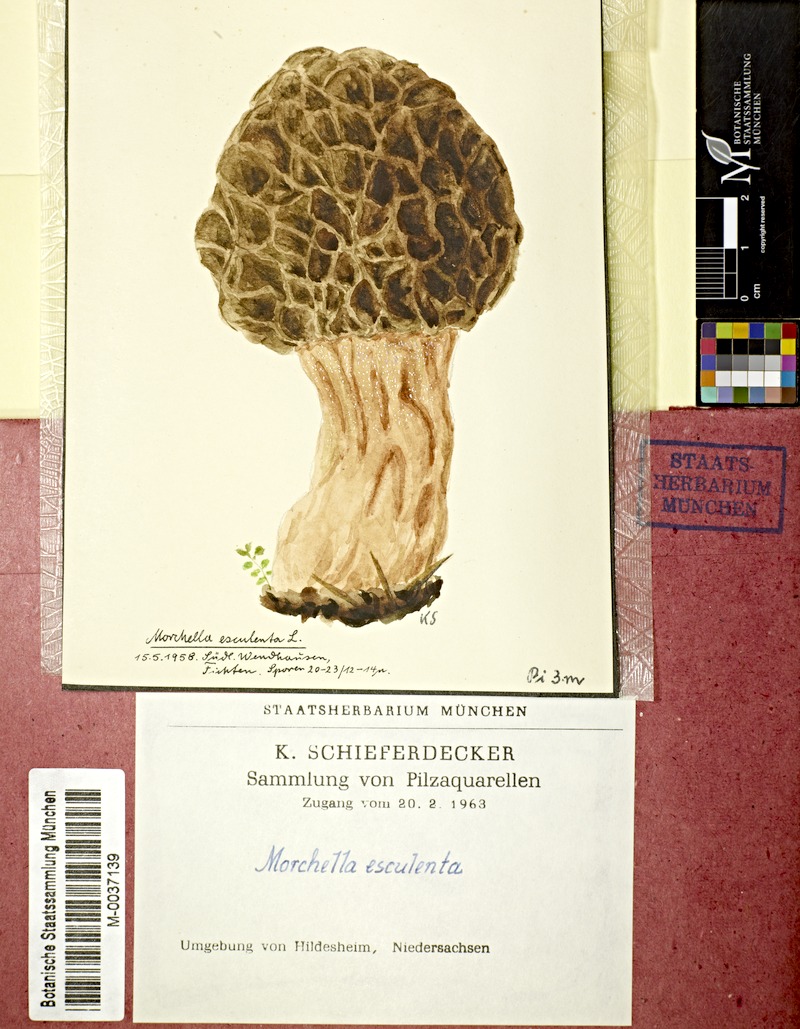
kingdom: Fungi
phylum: Ascomycota
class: Pezizomycetes
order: Pezizales
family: Morchellaceae
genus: Morchella
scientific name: Morchella esculenta
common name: Morel
